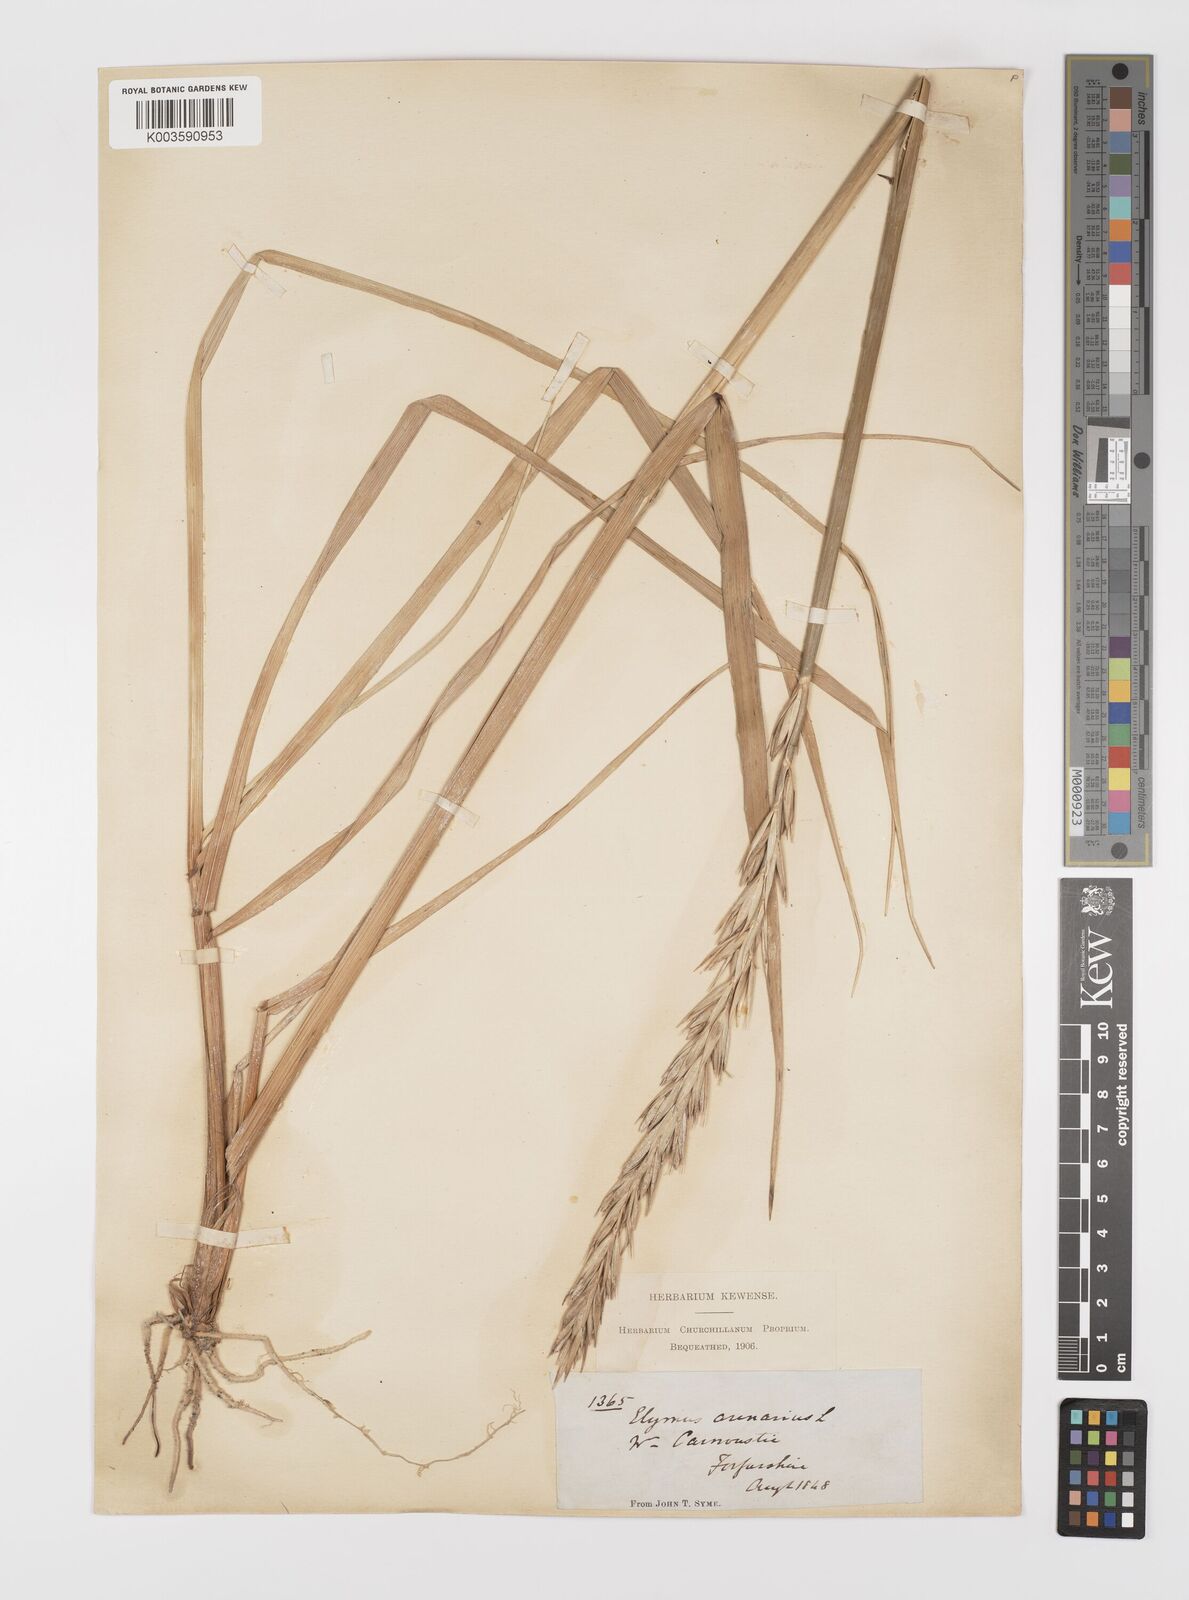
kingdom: Plantae
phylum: Tracheophyta
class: Liliopsida
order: Poales
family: Poaceae
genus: Leymus
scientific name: Leymus arenarius
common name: Lyme-grass
